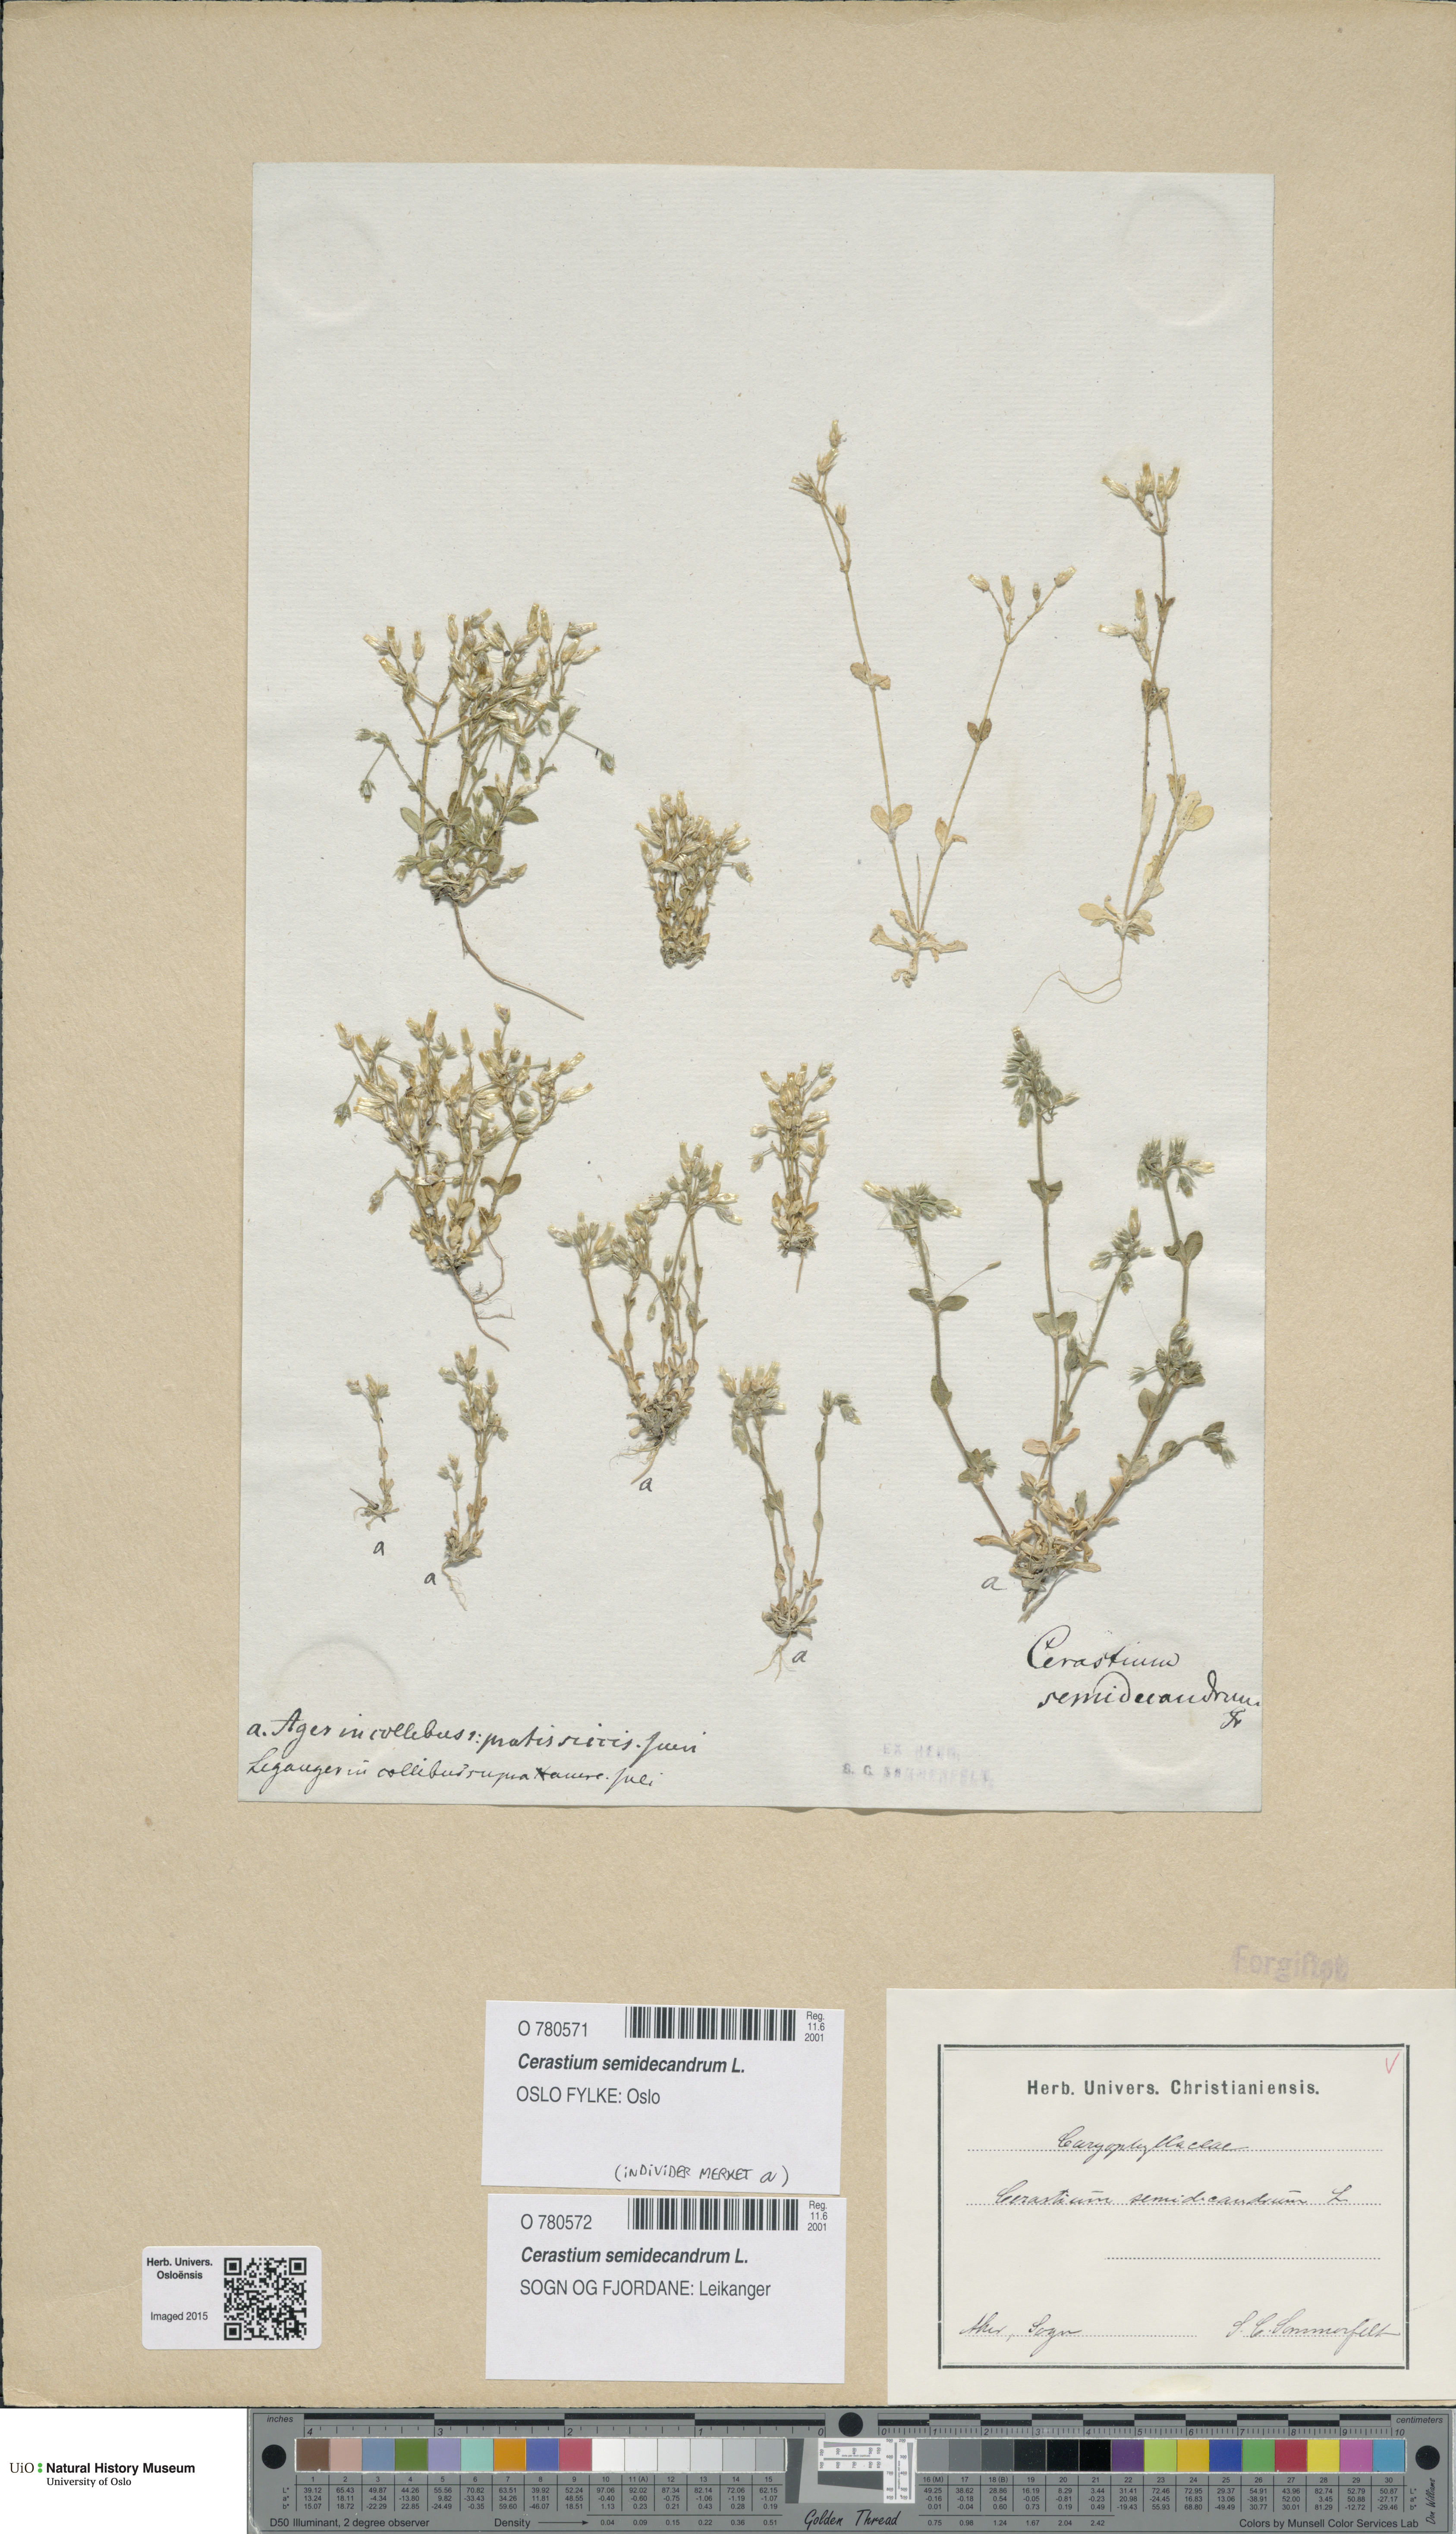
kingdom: Plantae
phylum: Tracheophyta
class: Magnoliopsida
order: Caryophyllales
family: Caryophyllaceae
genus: Cerastium
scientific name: Cerastium semidecandrum
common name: Little mouse-ear
